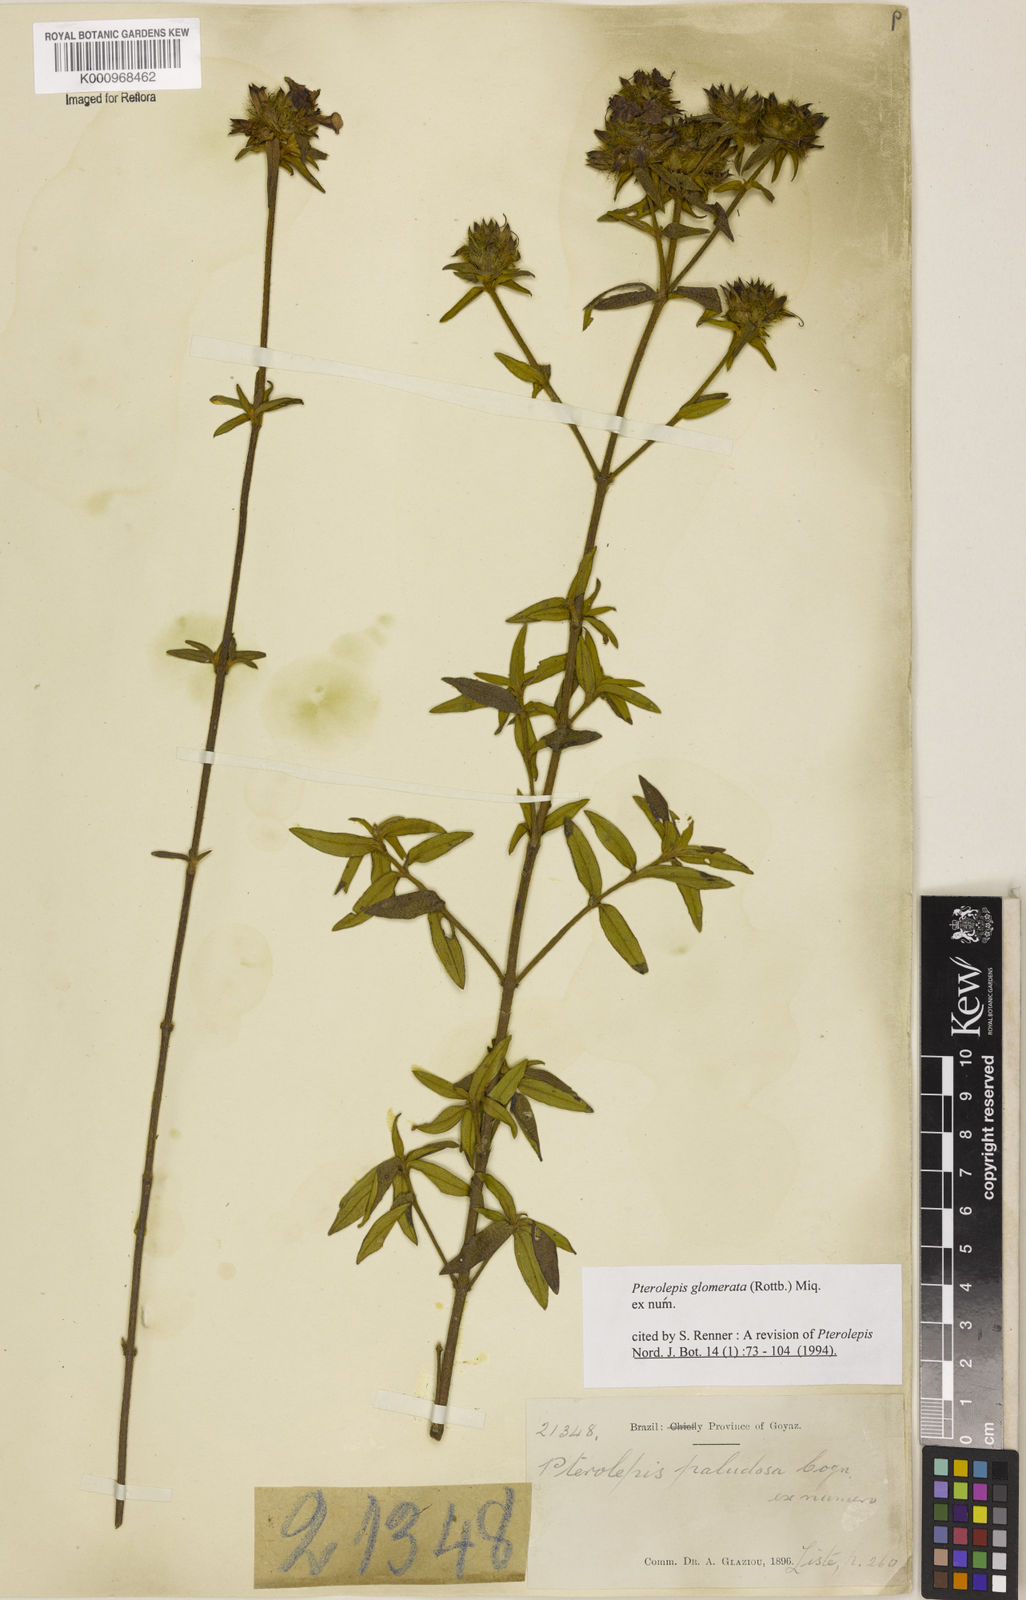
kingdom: Plantae
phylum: Tracheophyta
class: Magnoliopsida
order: Myrtales
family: Melastomataceae
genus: Pterolepis
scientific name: Pterolepis glomerata
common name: False meadowbeauty
